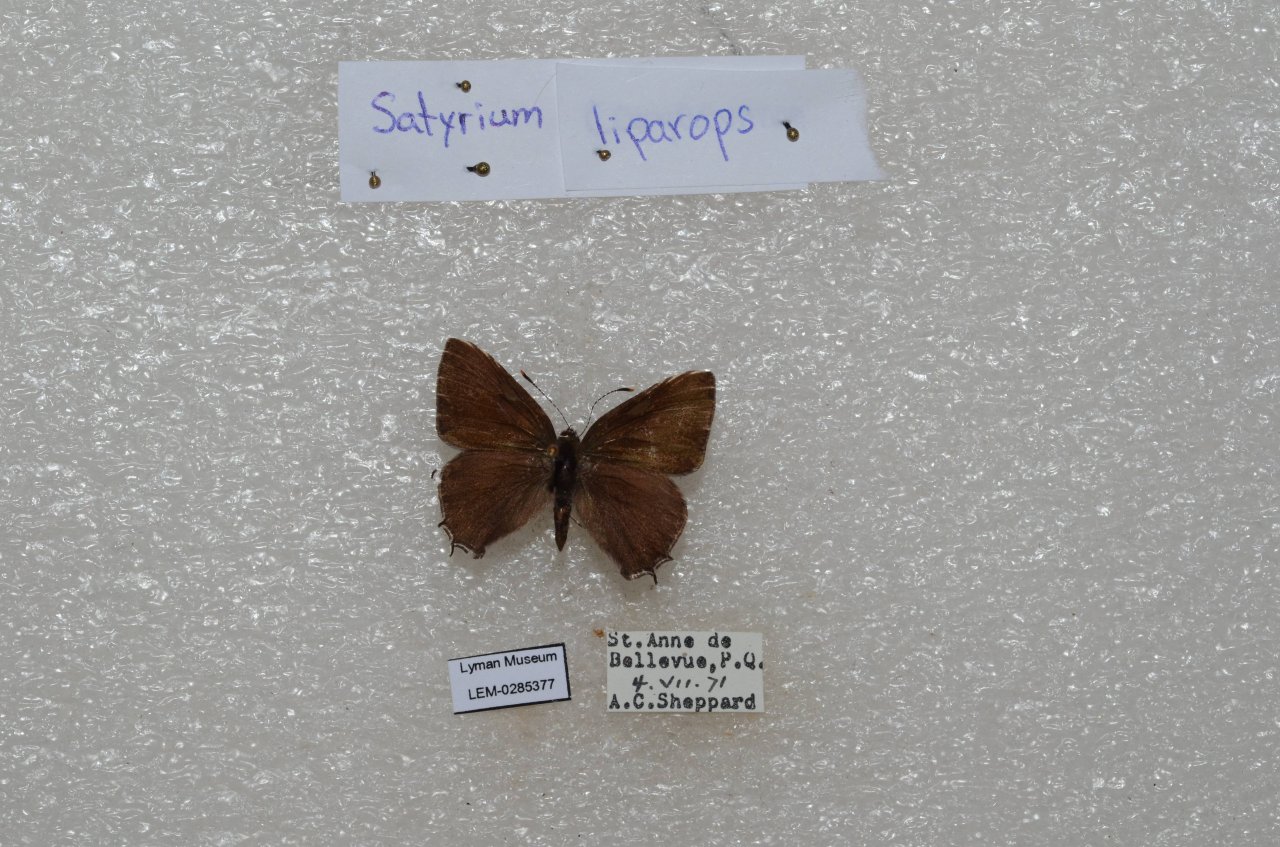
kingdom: Animalia
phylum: Arthropoda
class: Insecta
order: Lepidoptera
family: Lycaenidae
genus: Satyrium
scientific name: Satyrium liparops
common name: Striped Hairstreak
